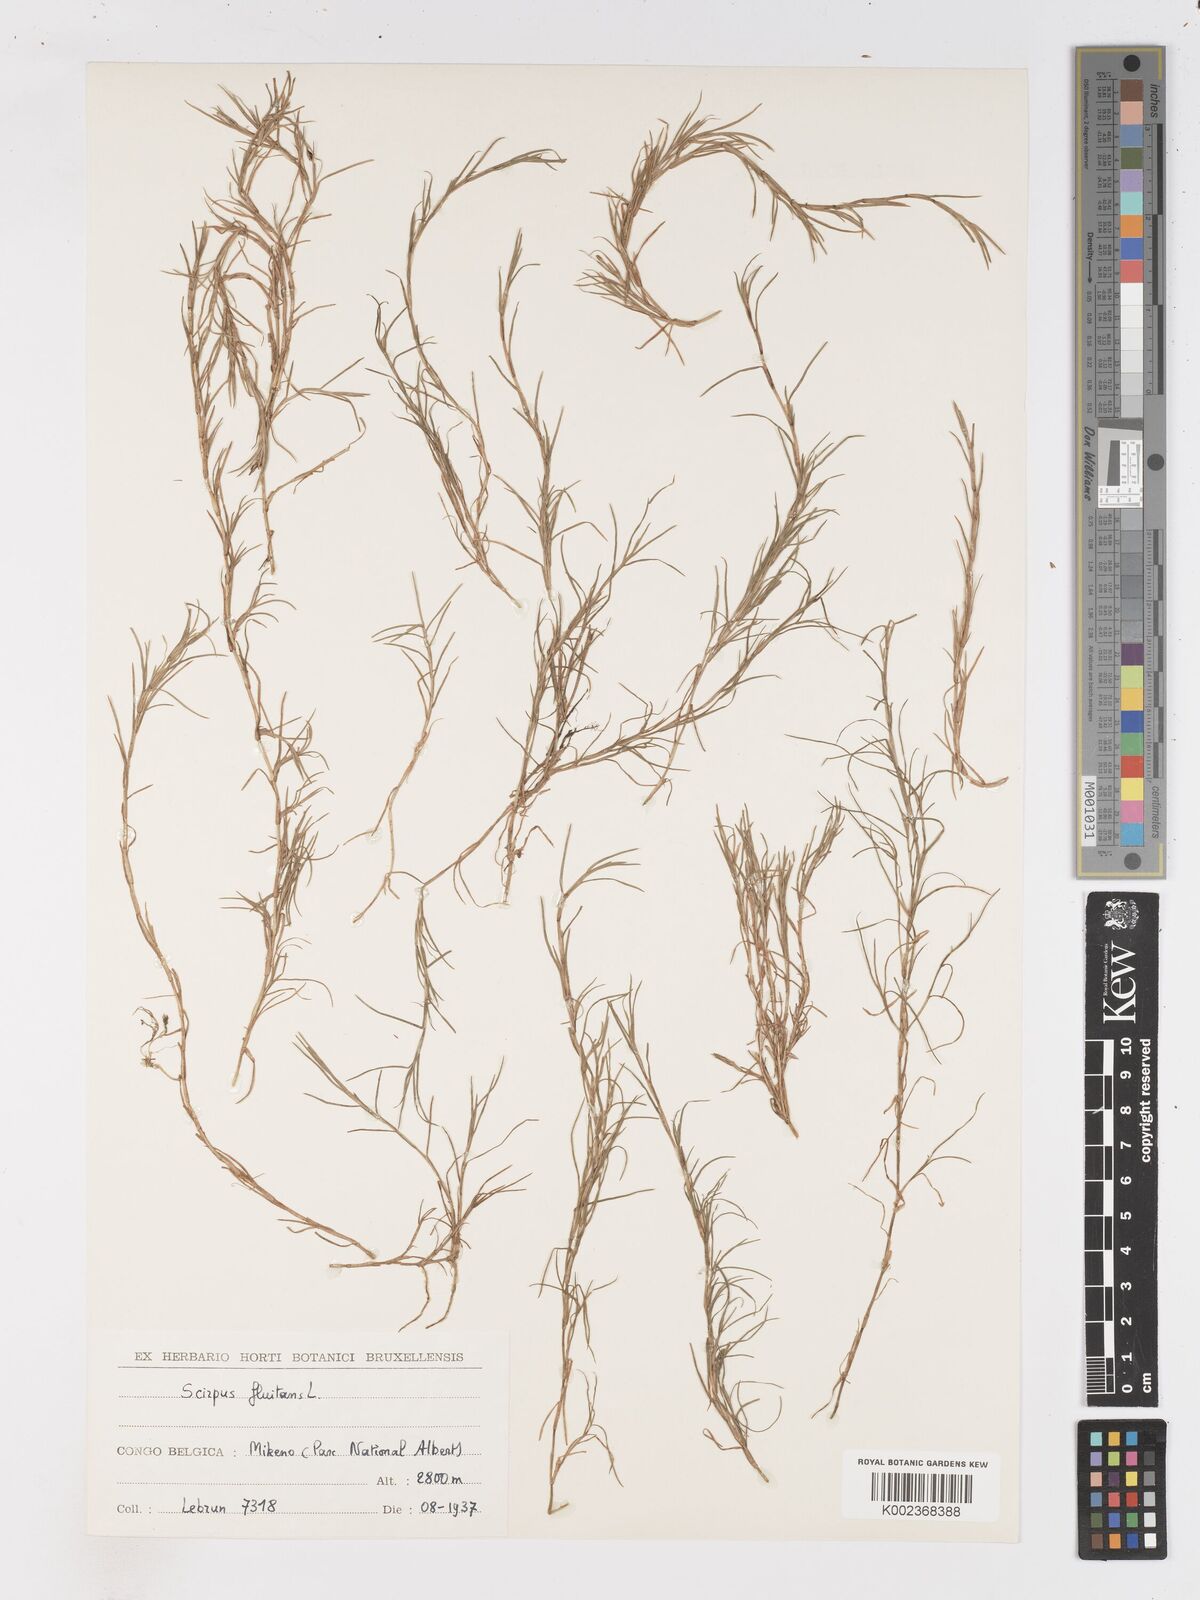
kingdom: Plantae
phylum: Tracheophyta
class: Liliopsida
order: Poales
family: Cyperaceae
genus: Isolepis
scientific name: Isolepis fluitans
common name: Floating club-rush
